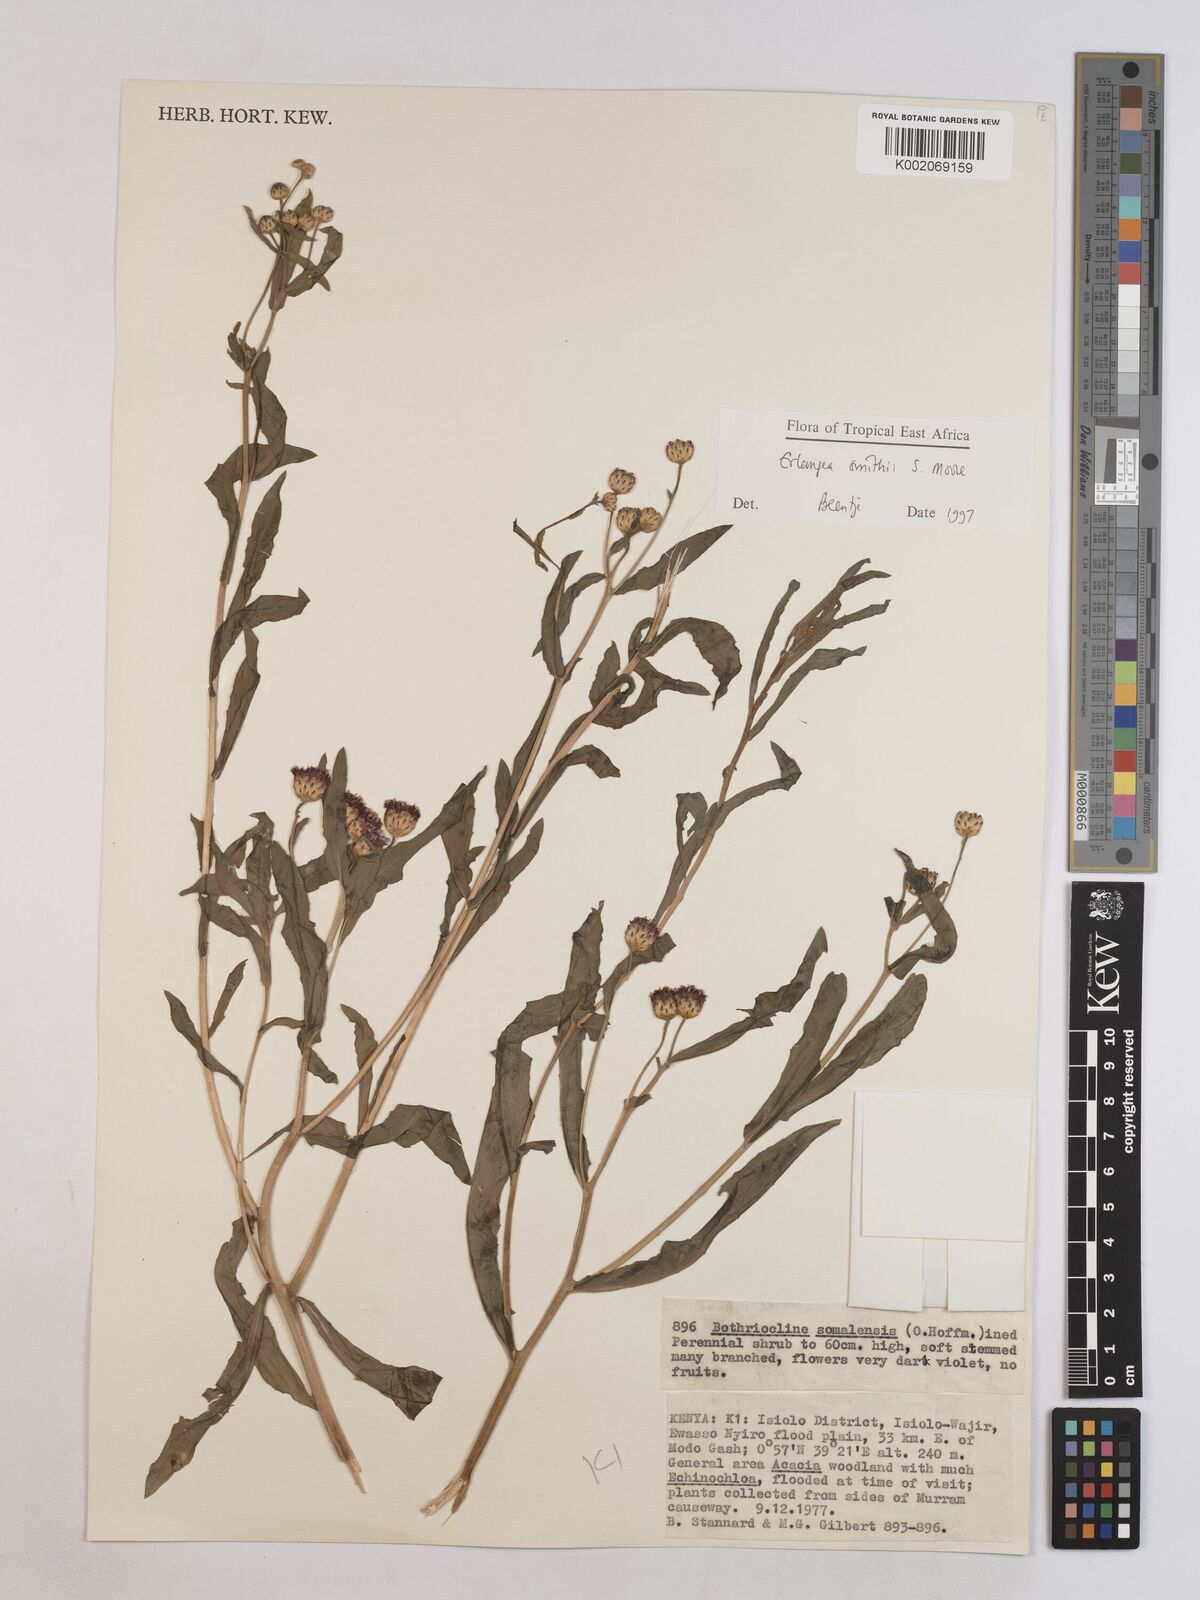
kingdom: Plantae
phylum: Tracheophyta
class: Magnoliopsida
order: Asterales
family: Asteraceae
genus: Erlangea
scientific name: Erlangea smithii
